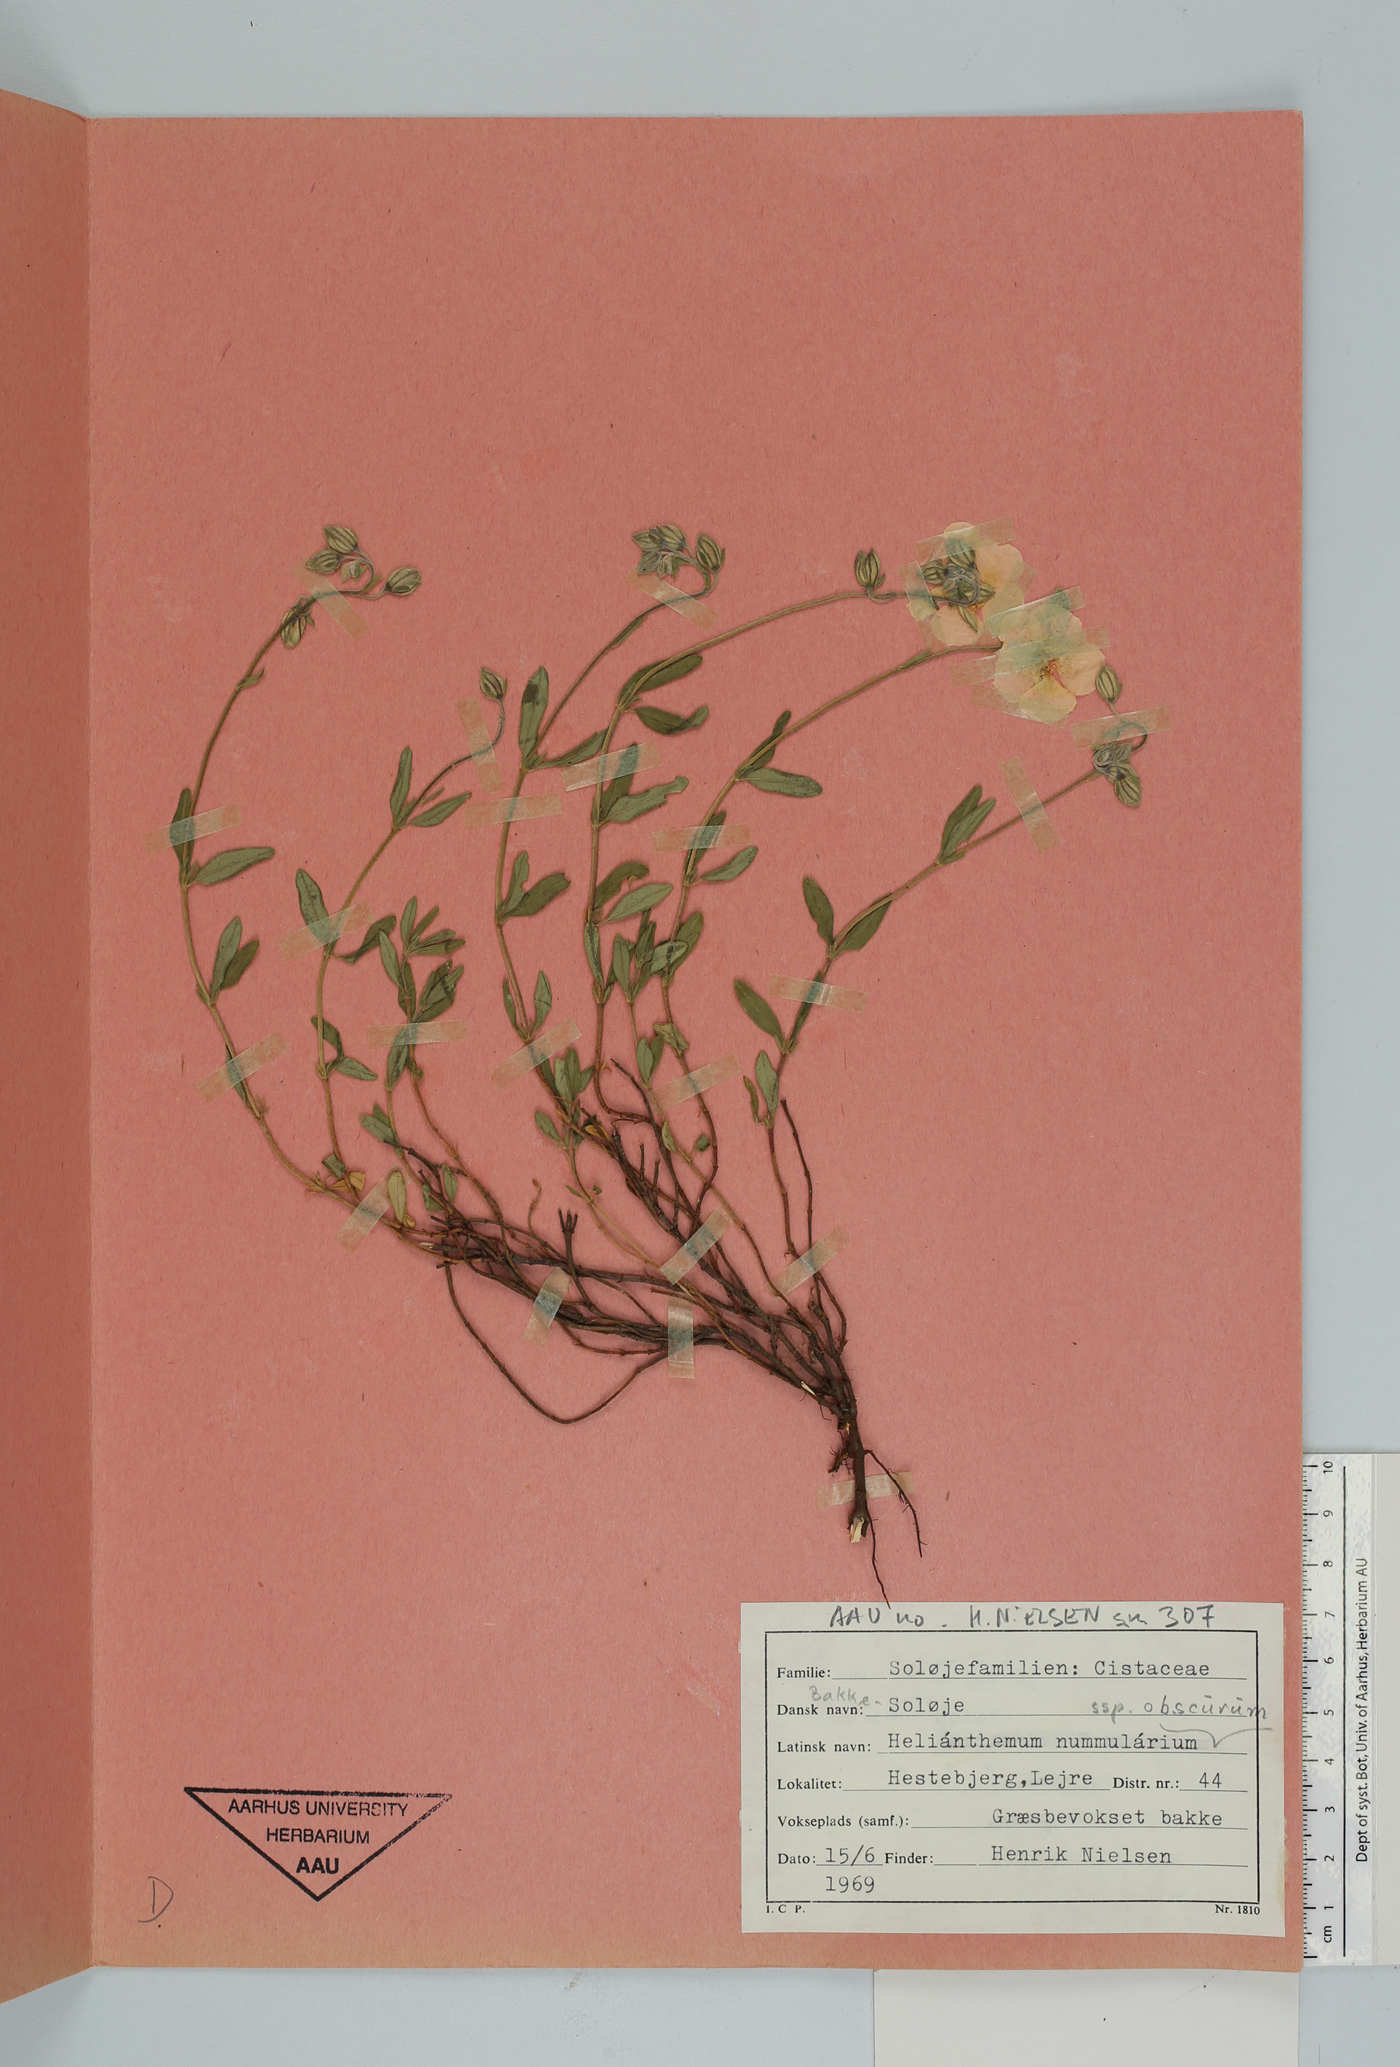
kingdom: Plantae
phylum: Tracheophyta
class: Magnoliopsida
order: Malvales
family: Cistaceae
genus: Helianthemum
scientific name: Helianthemum nummularium
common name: Common rock-rose
